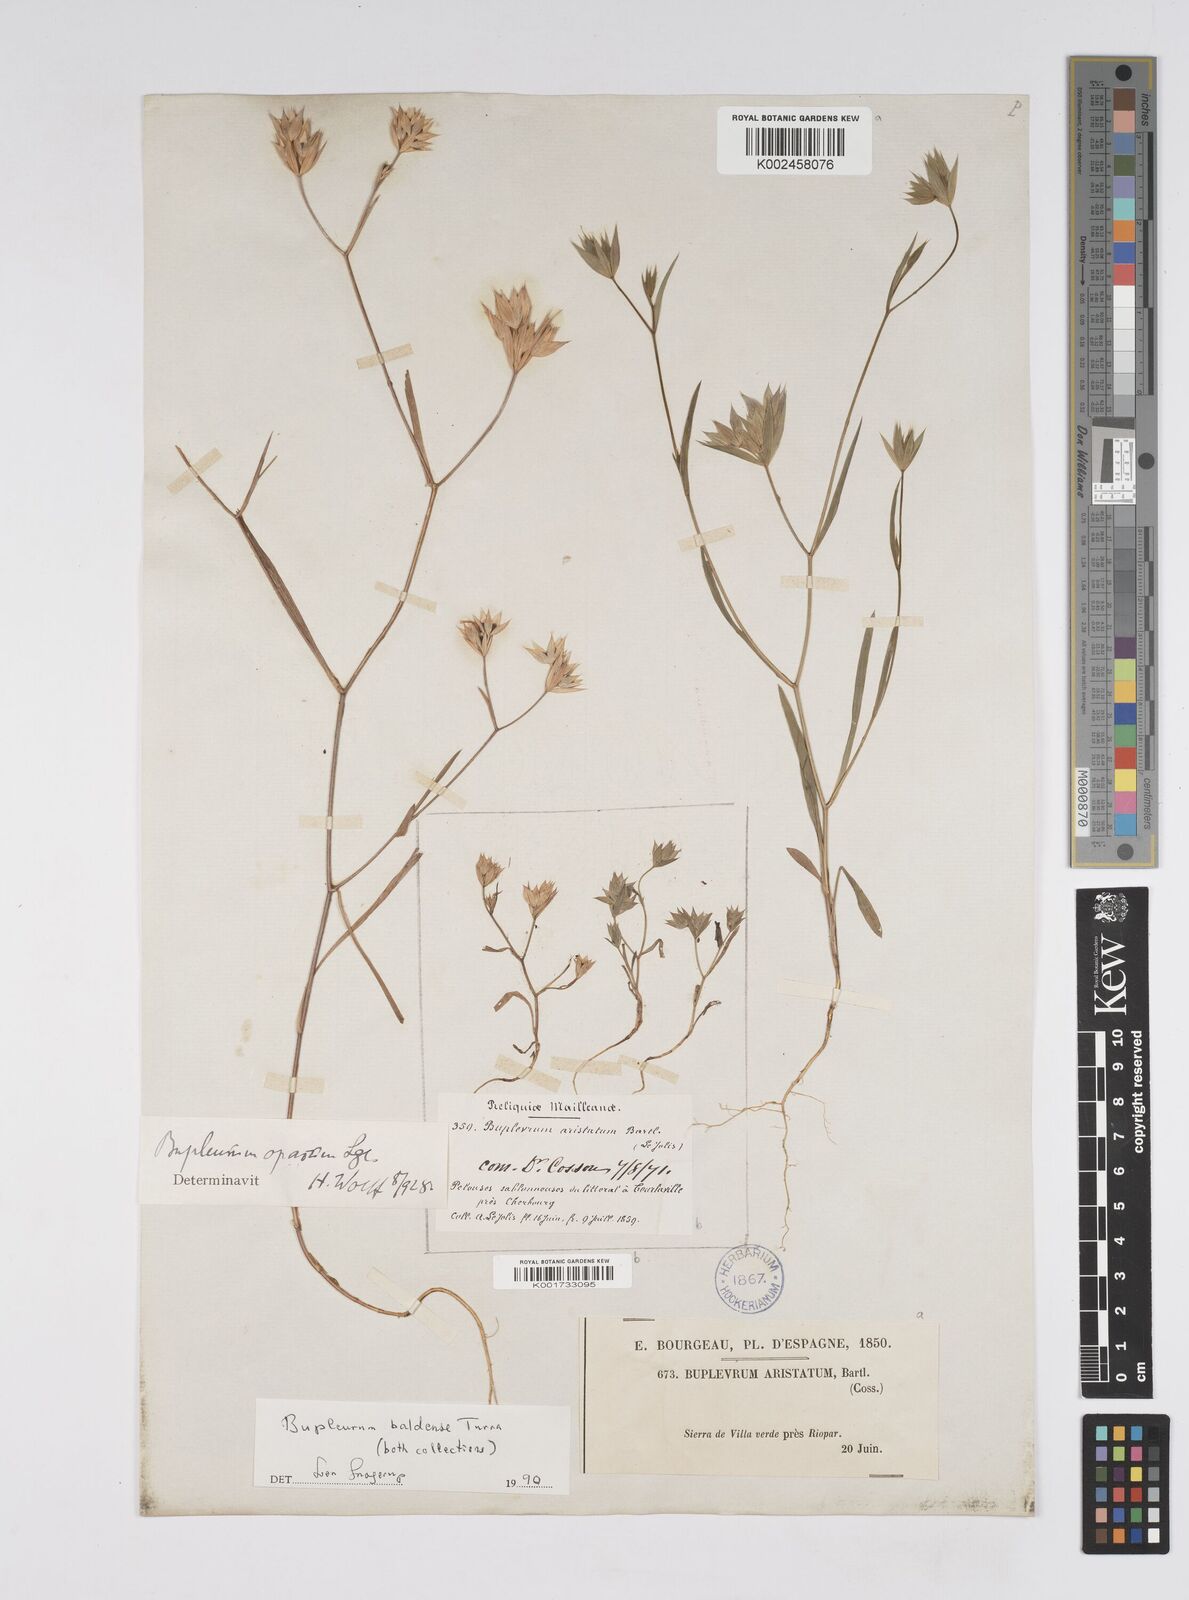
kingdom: Plantae
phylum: Tracheophyta
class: Magnoliopsida
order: Apiales
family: Apiaceae
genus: Bupleurum
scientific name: Bupleurum baldense
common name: Small hare's-ear
